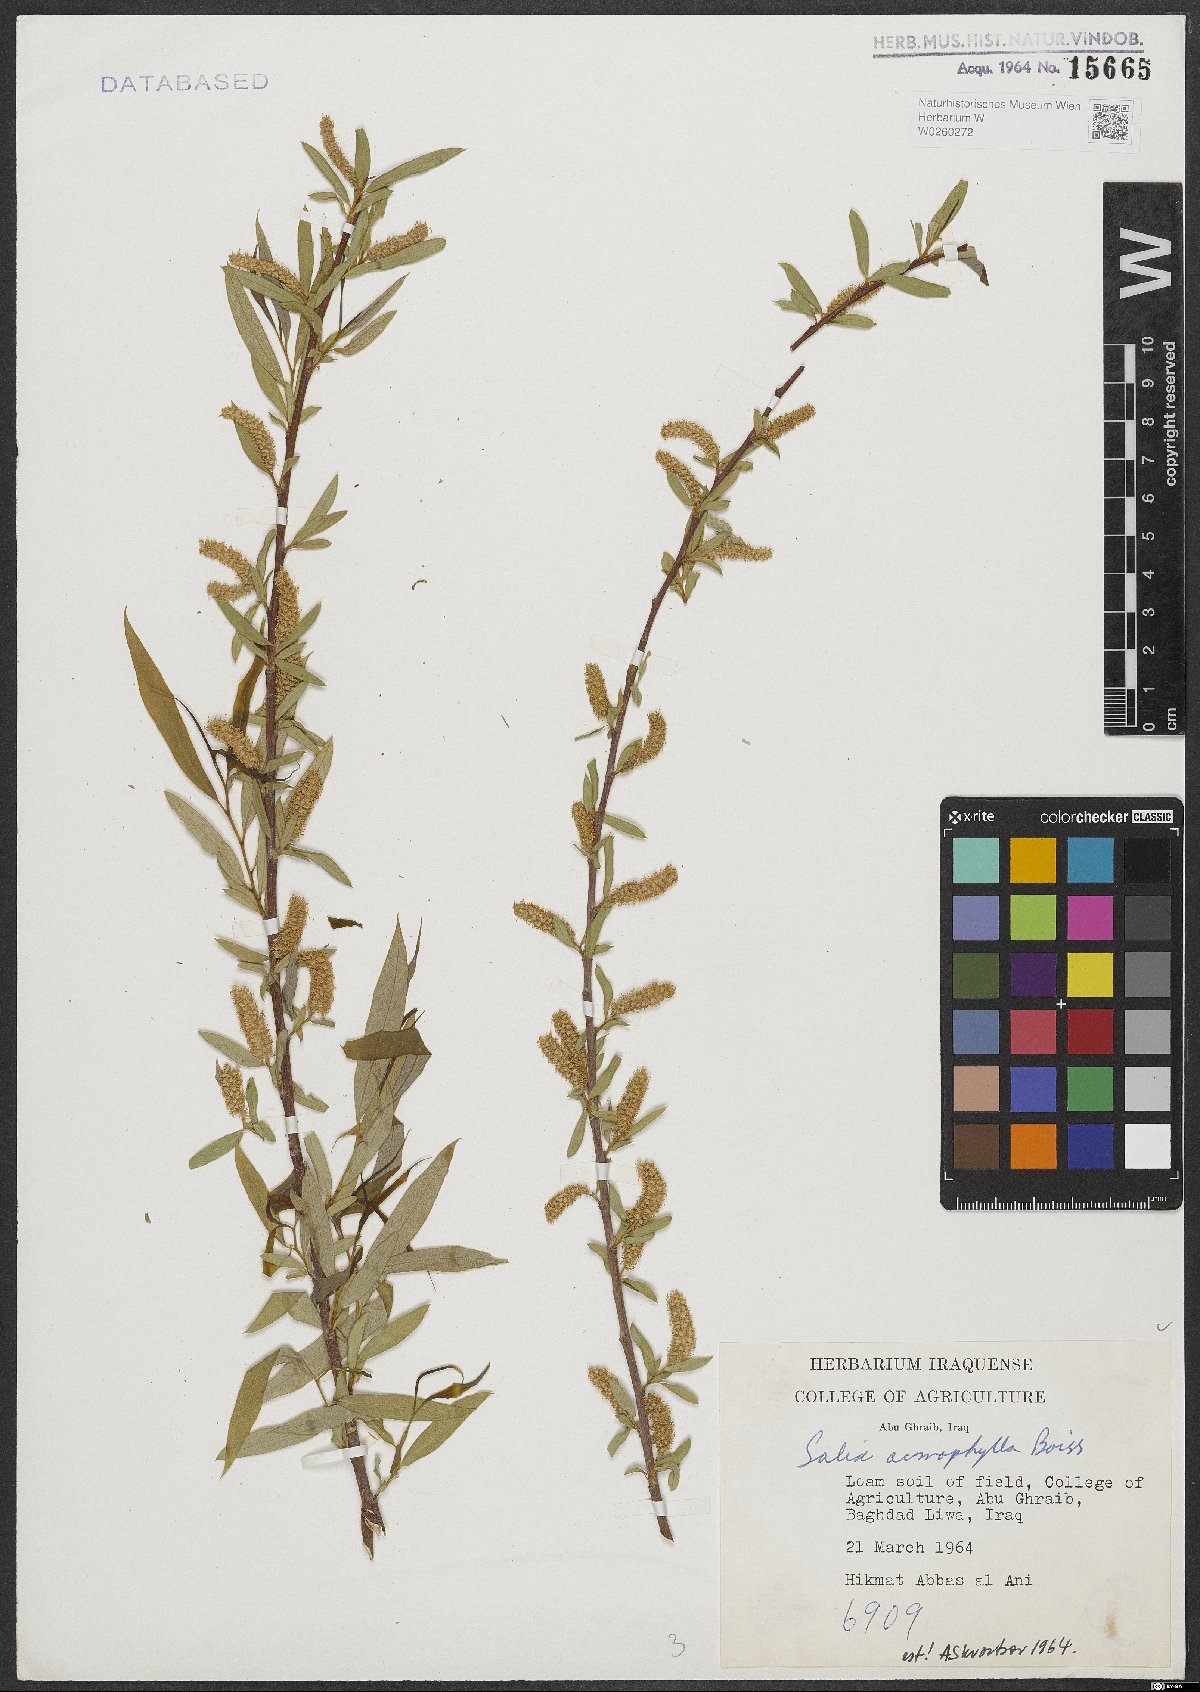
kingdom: Plantae
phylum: Tracheophyta
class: Magnoliopsida
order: Malpighiales
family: Salicaceae
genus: Salix
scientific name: Salix acmophylla
